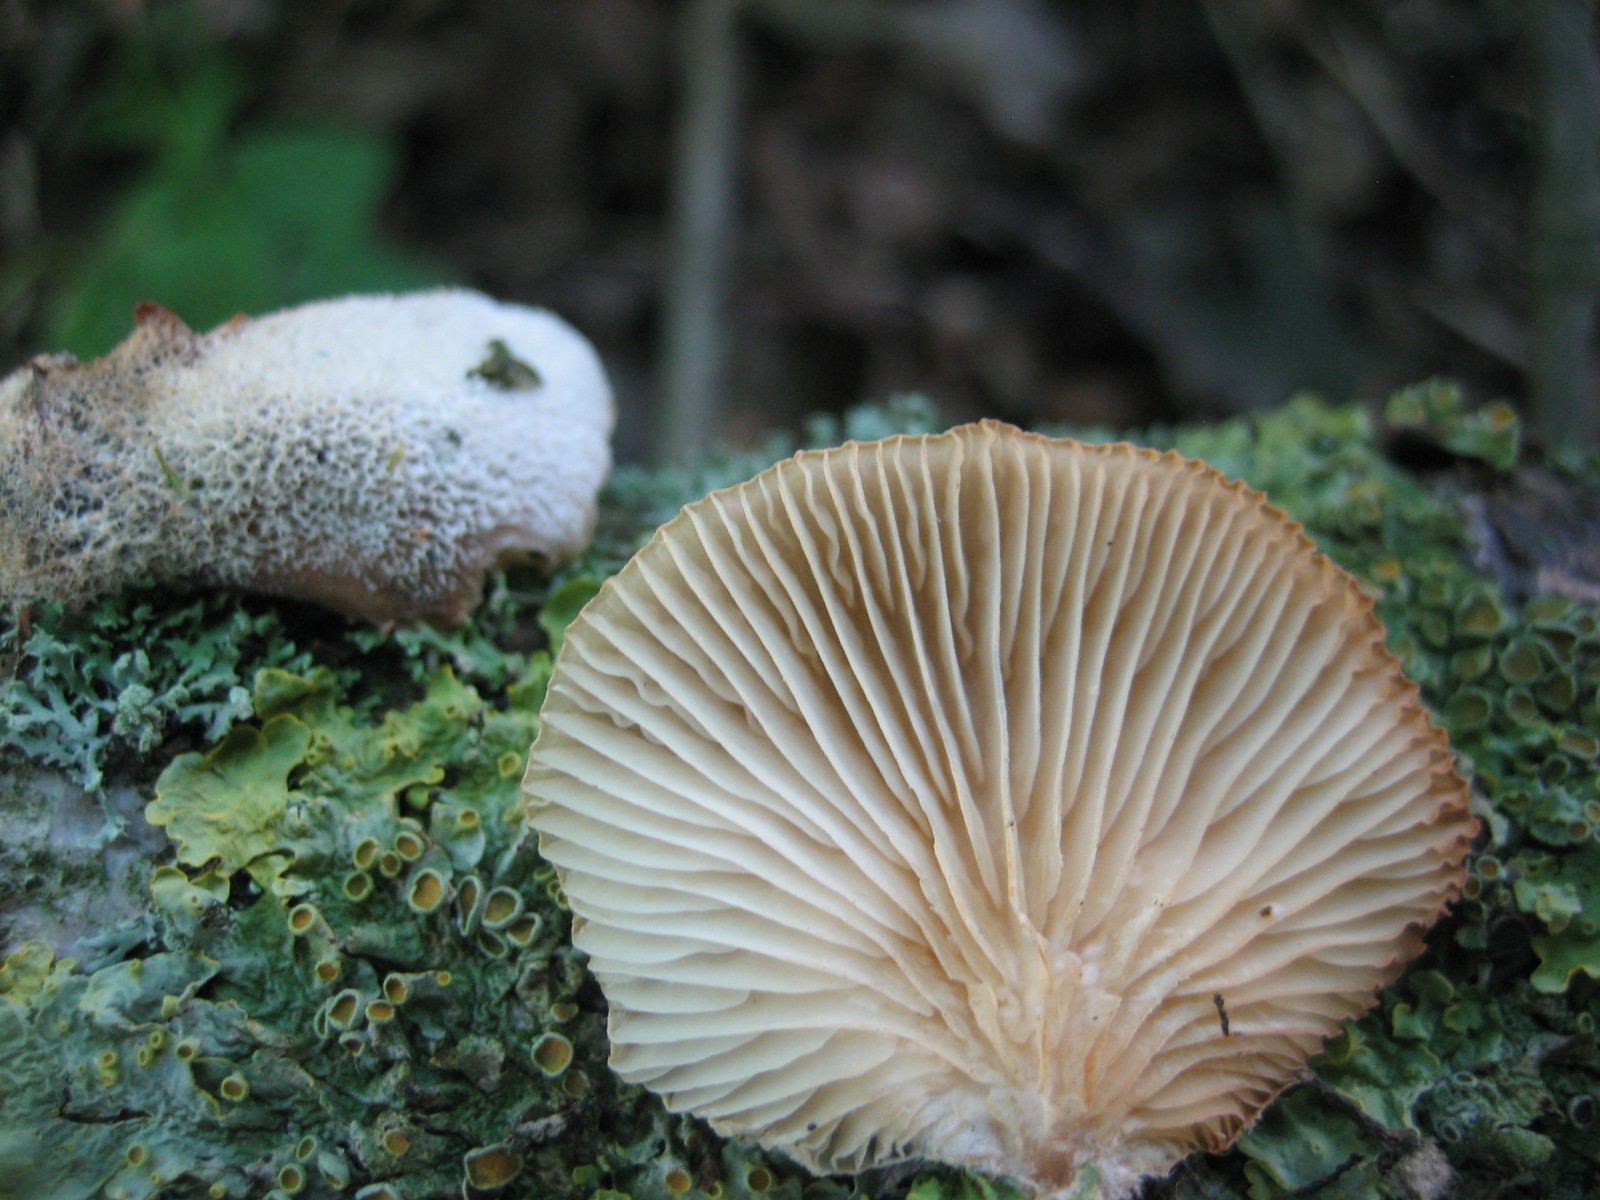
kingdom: Fungi
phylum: Basidiomycota
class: Agaricomycetes
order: Agaricales
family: Pleurotaceae
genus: Hohenbuehelia
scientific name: Hohenbuehelia mastrucata
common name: skællet filthat
